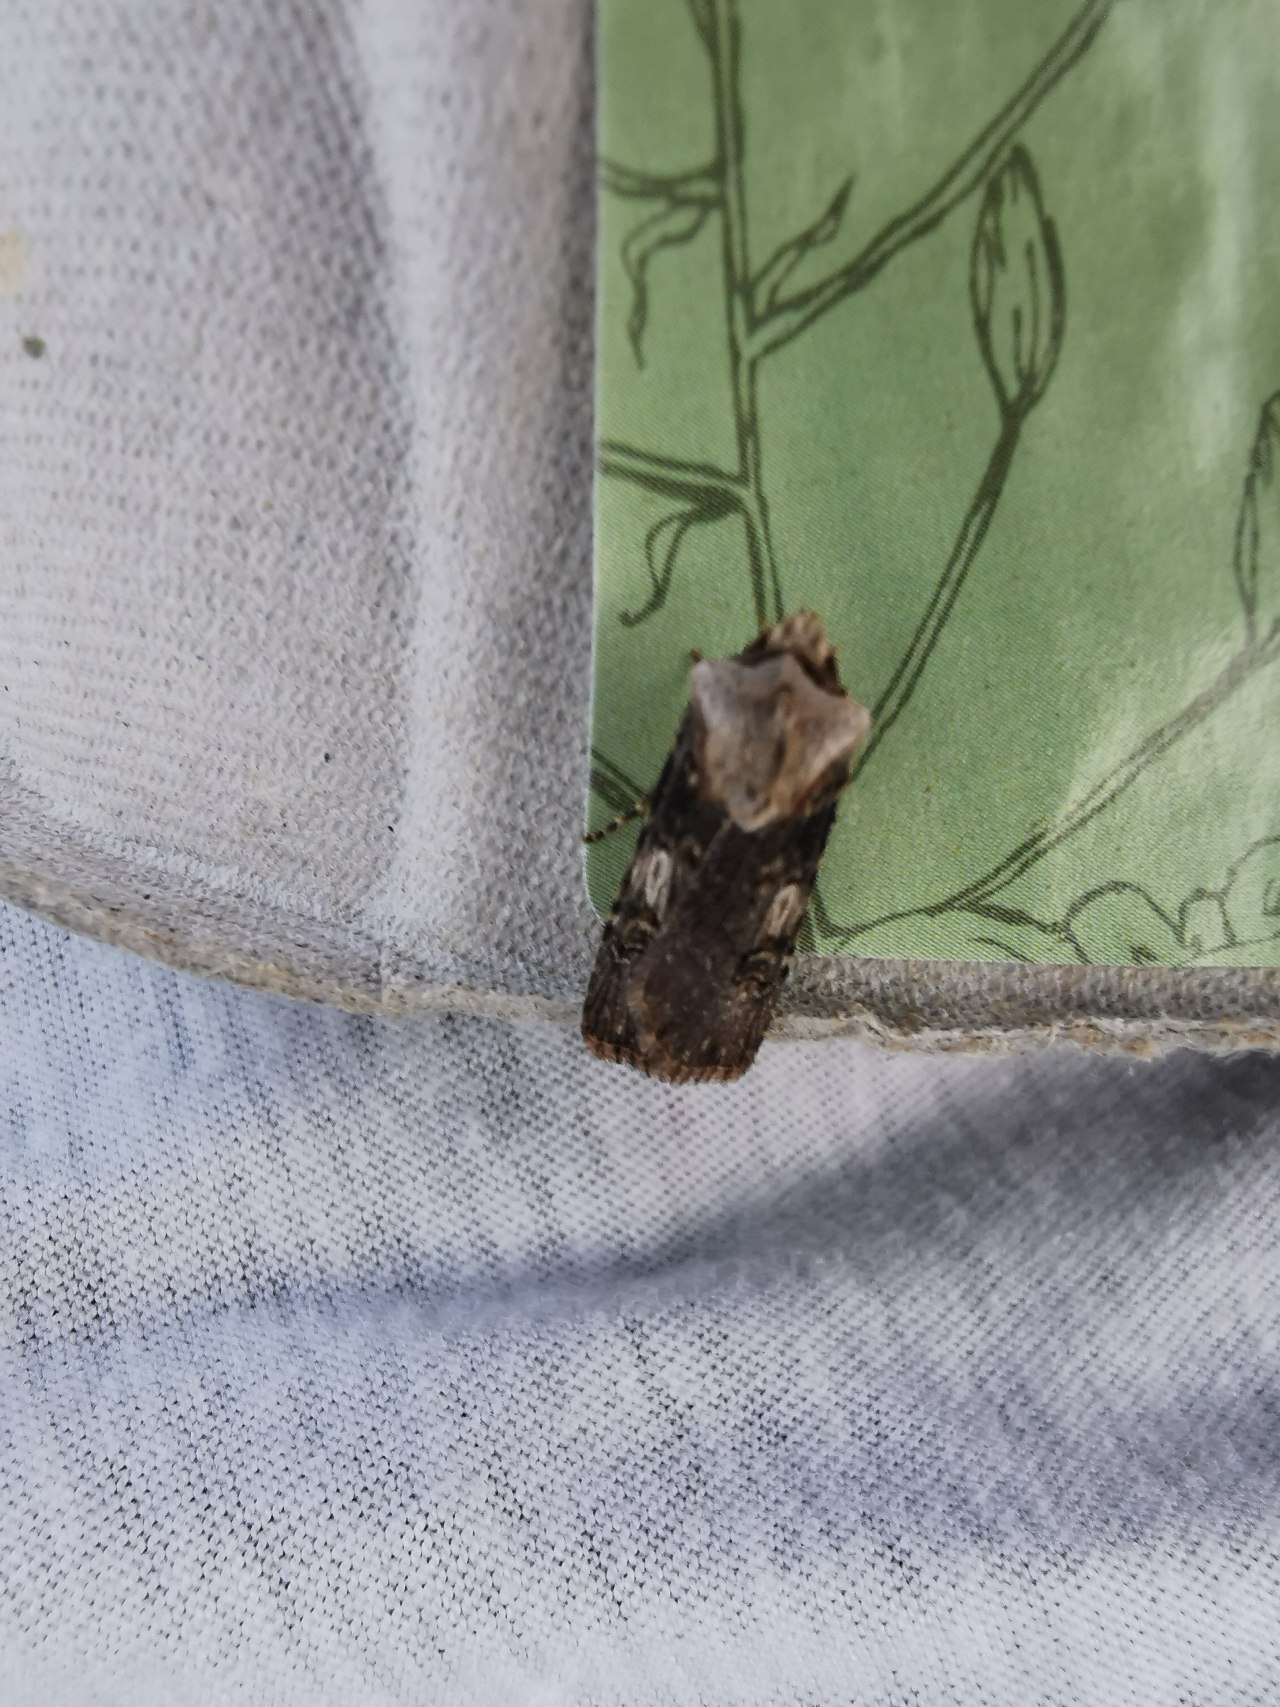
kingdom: Animalia
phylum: Arthropoda
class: Insecta
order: Lepidoptera
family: Noctuidae
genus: Agrotis
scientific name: Agrotis puta
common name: Frønnet landmand
